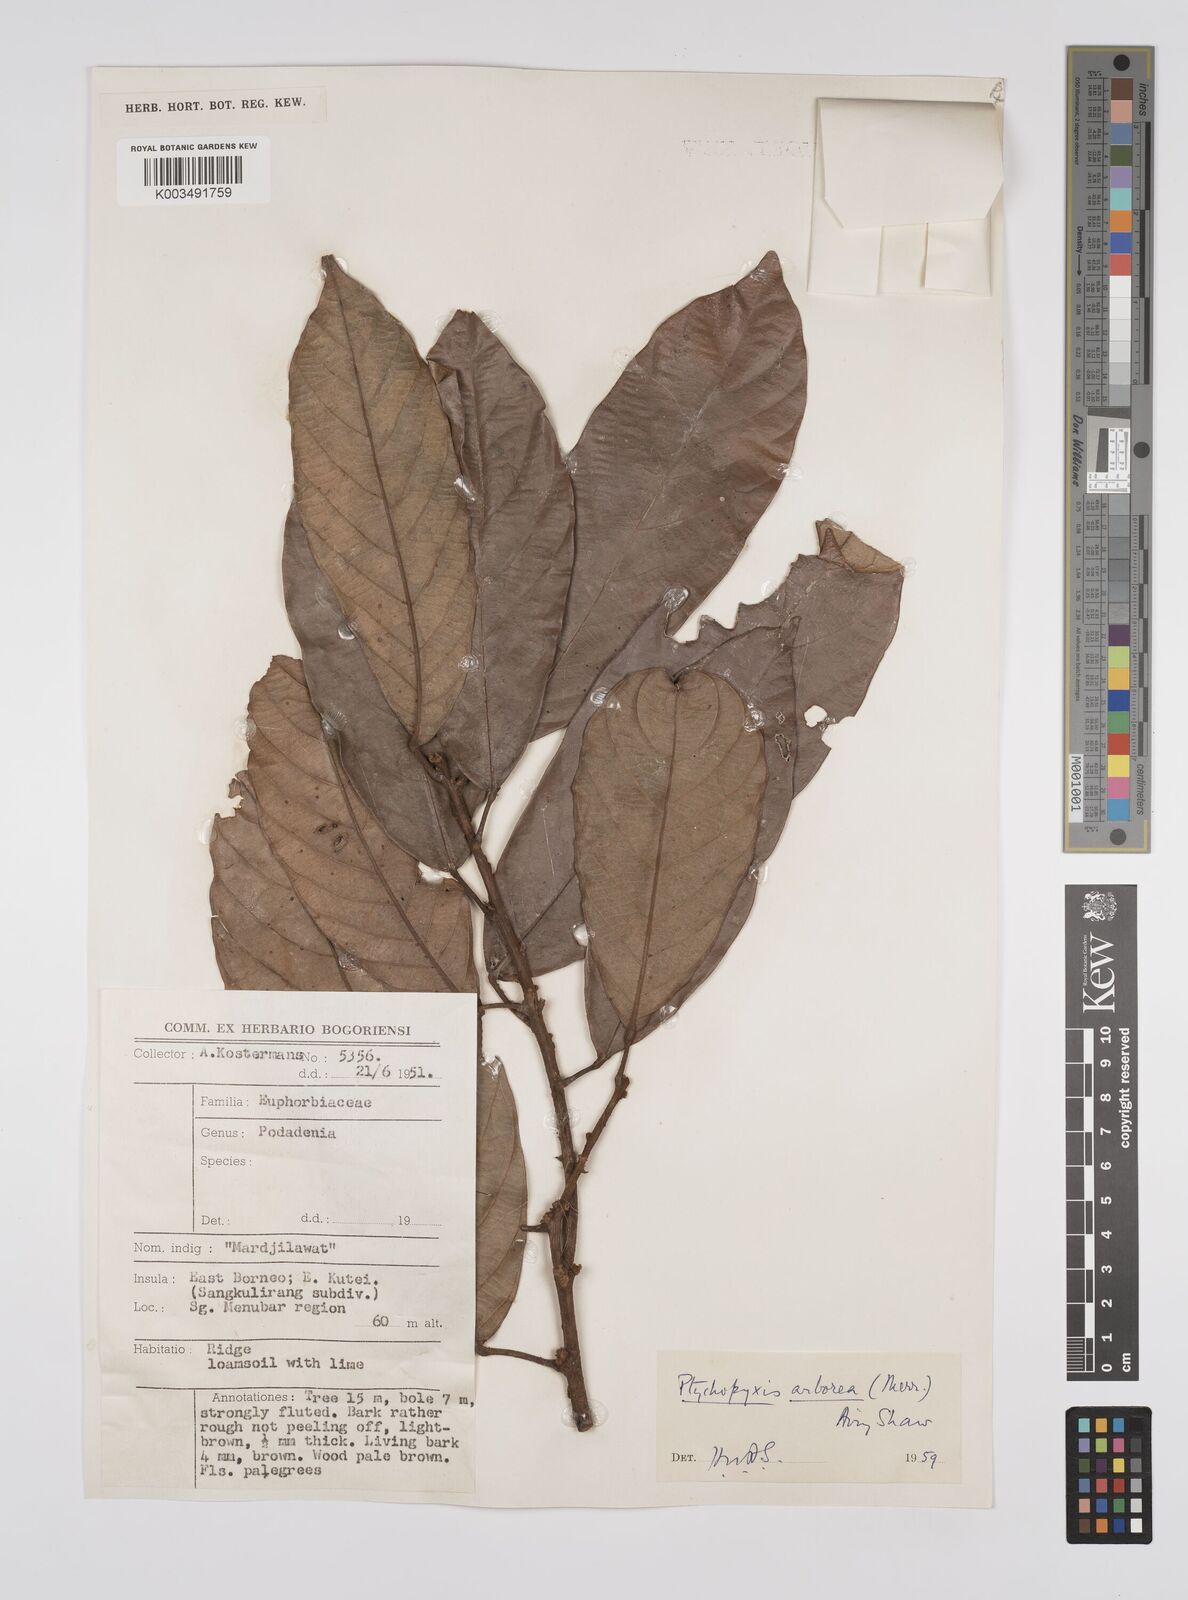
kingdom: Plantae
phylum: Tracheophyta
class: Magnoliopsida
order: Malpighiales
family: Euphorbiaceae
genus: Ptychopyxis
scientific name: Ptychopyxis arborea
